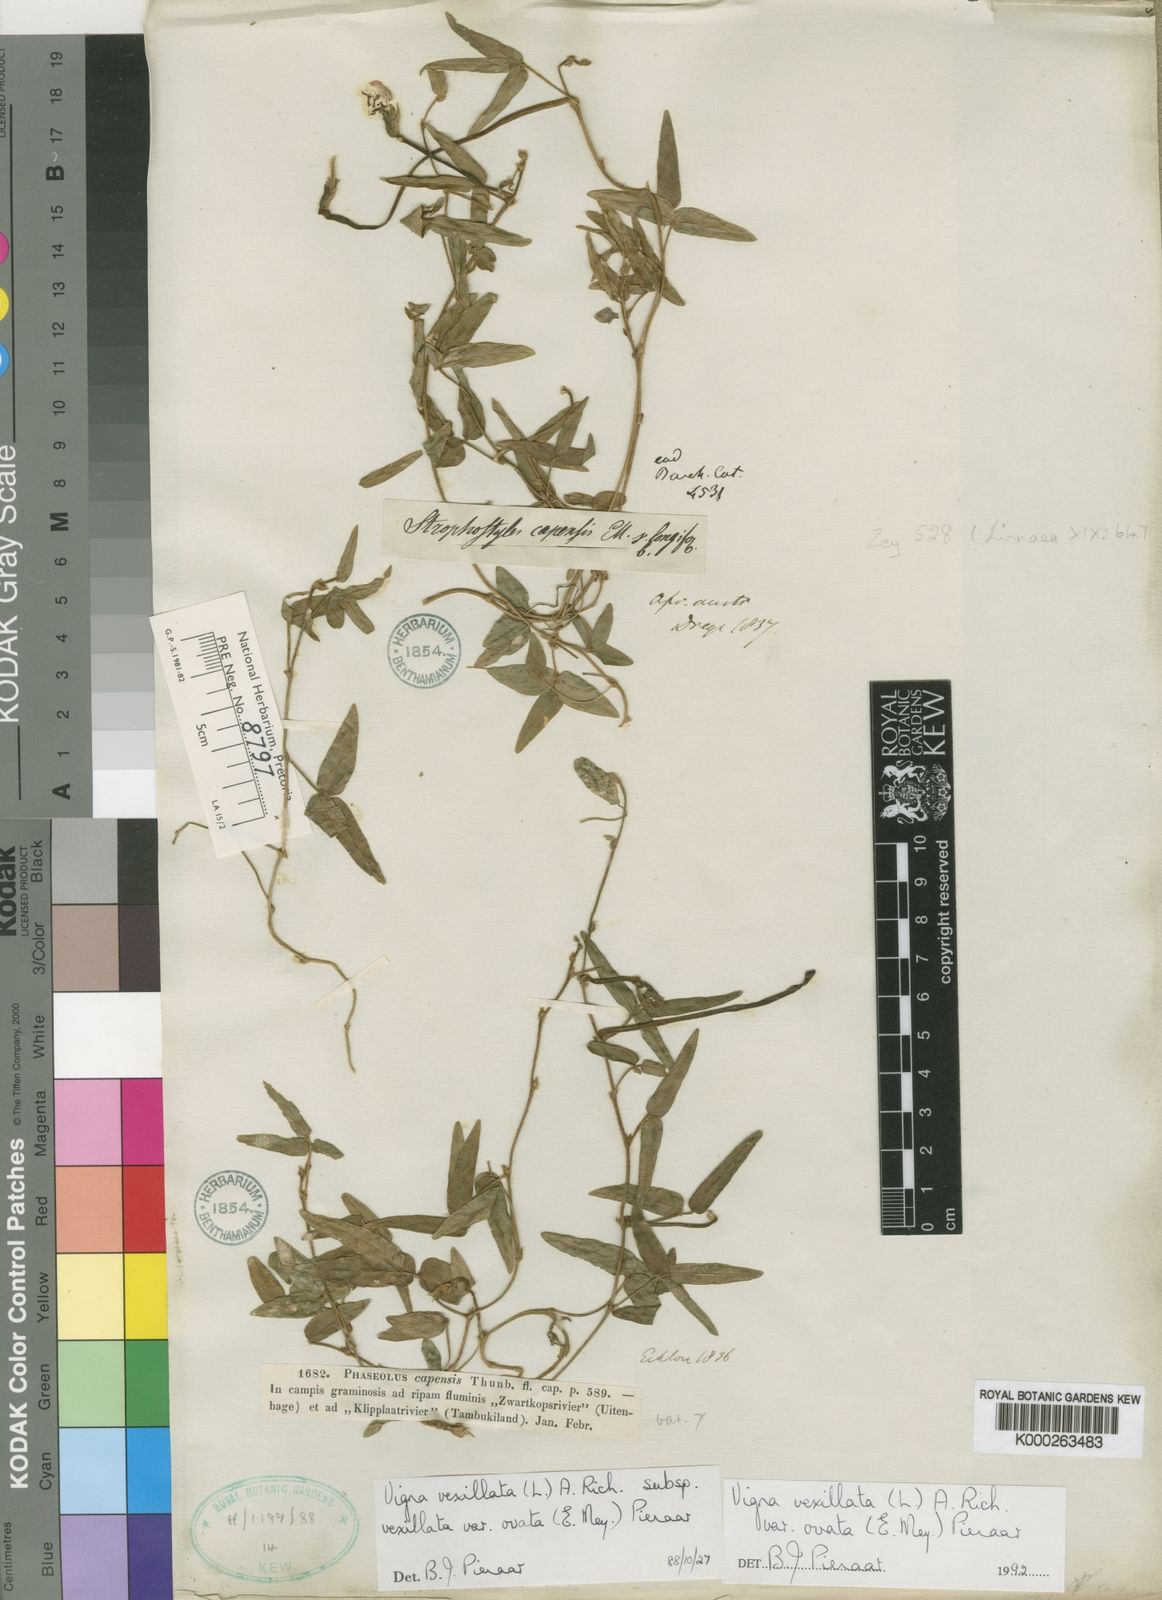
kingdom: Plantae
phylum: Tracheophyta
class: Magnoliopsida
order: Fabales
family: Fabaceae
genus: Vigna
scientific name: Vigna vexillata
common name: Zombi pea
